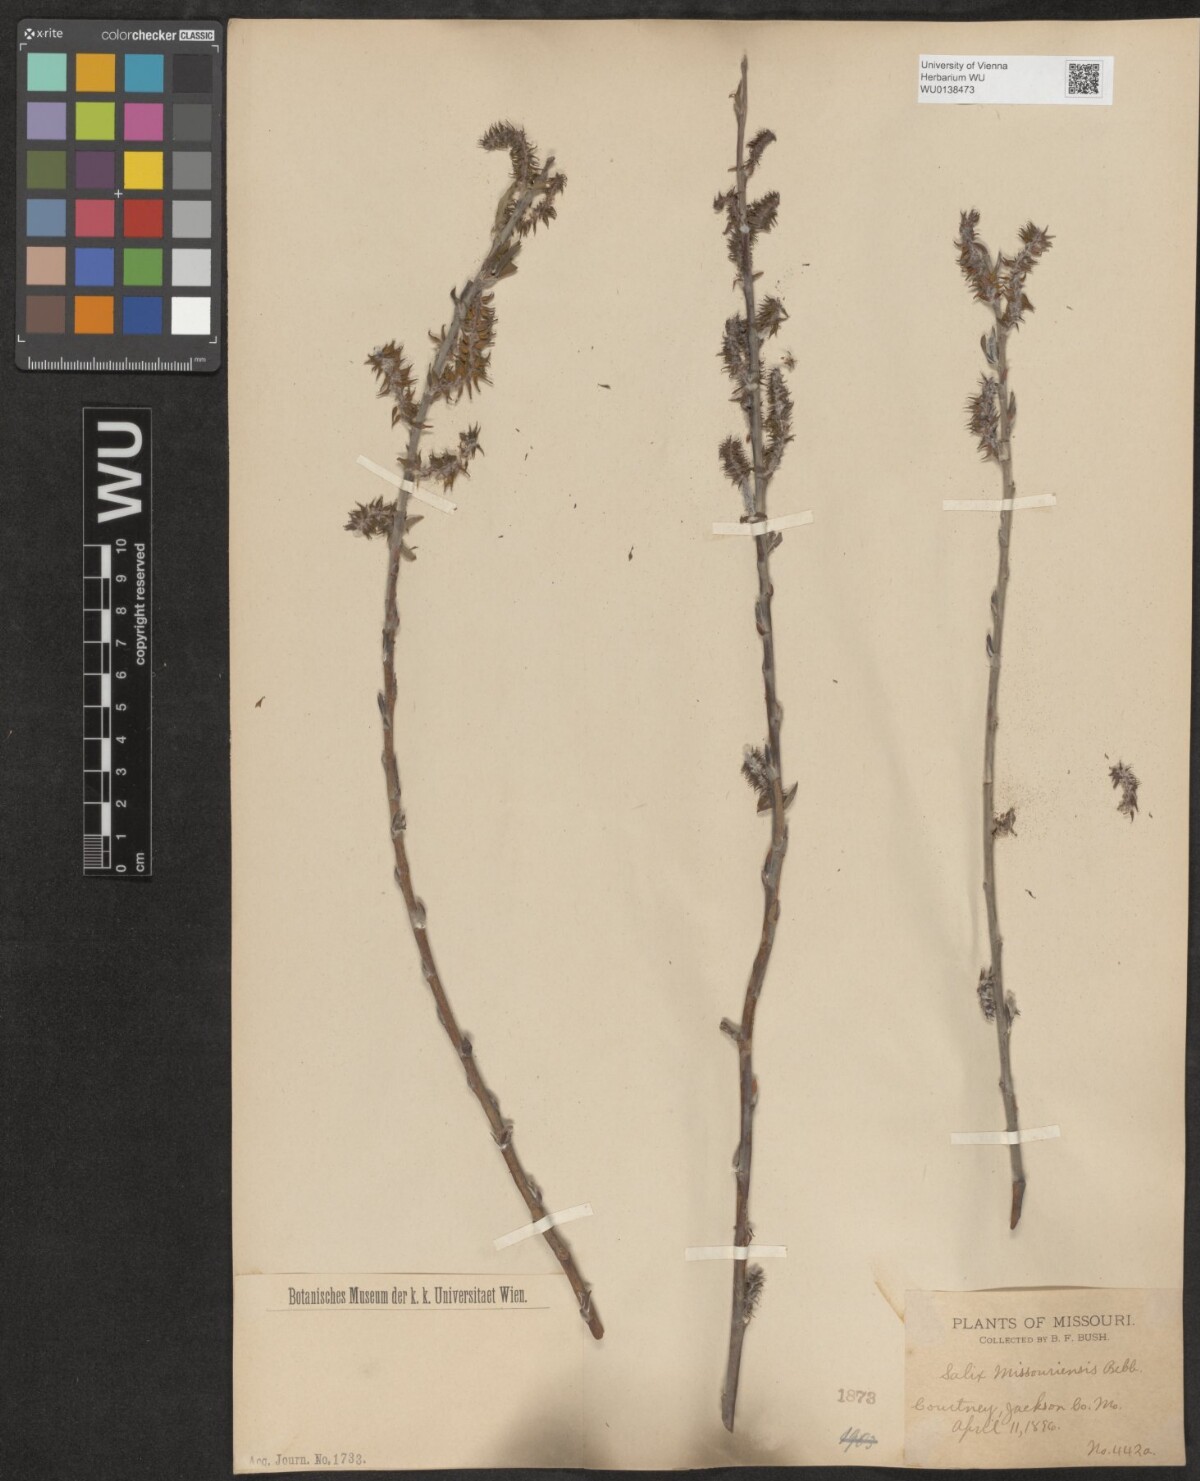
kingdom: Plantae
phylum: Tracheophyta
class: Magnoliopsida
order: Malpighiales
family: Salicaceae
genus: Salix
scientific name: Salix eriocephala
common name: Heart-leaved willow
